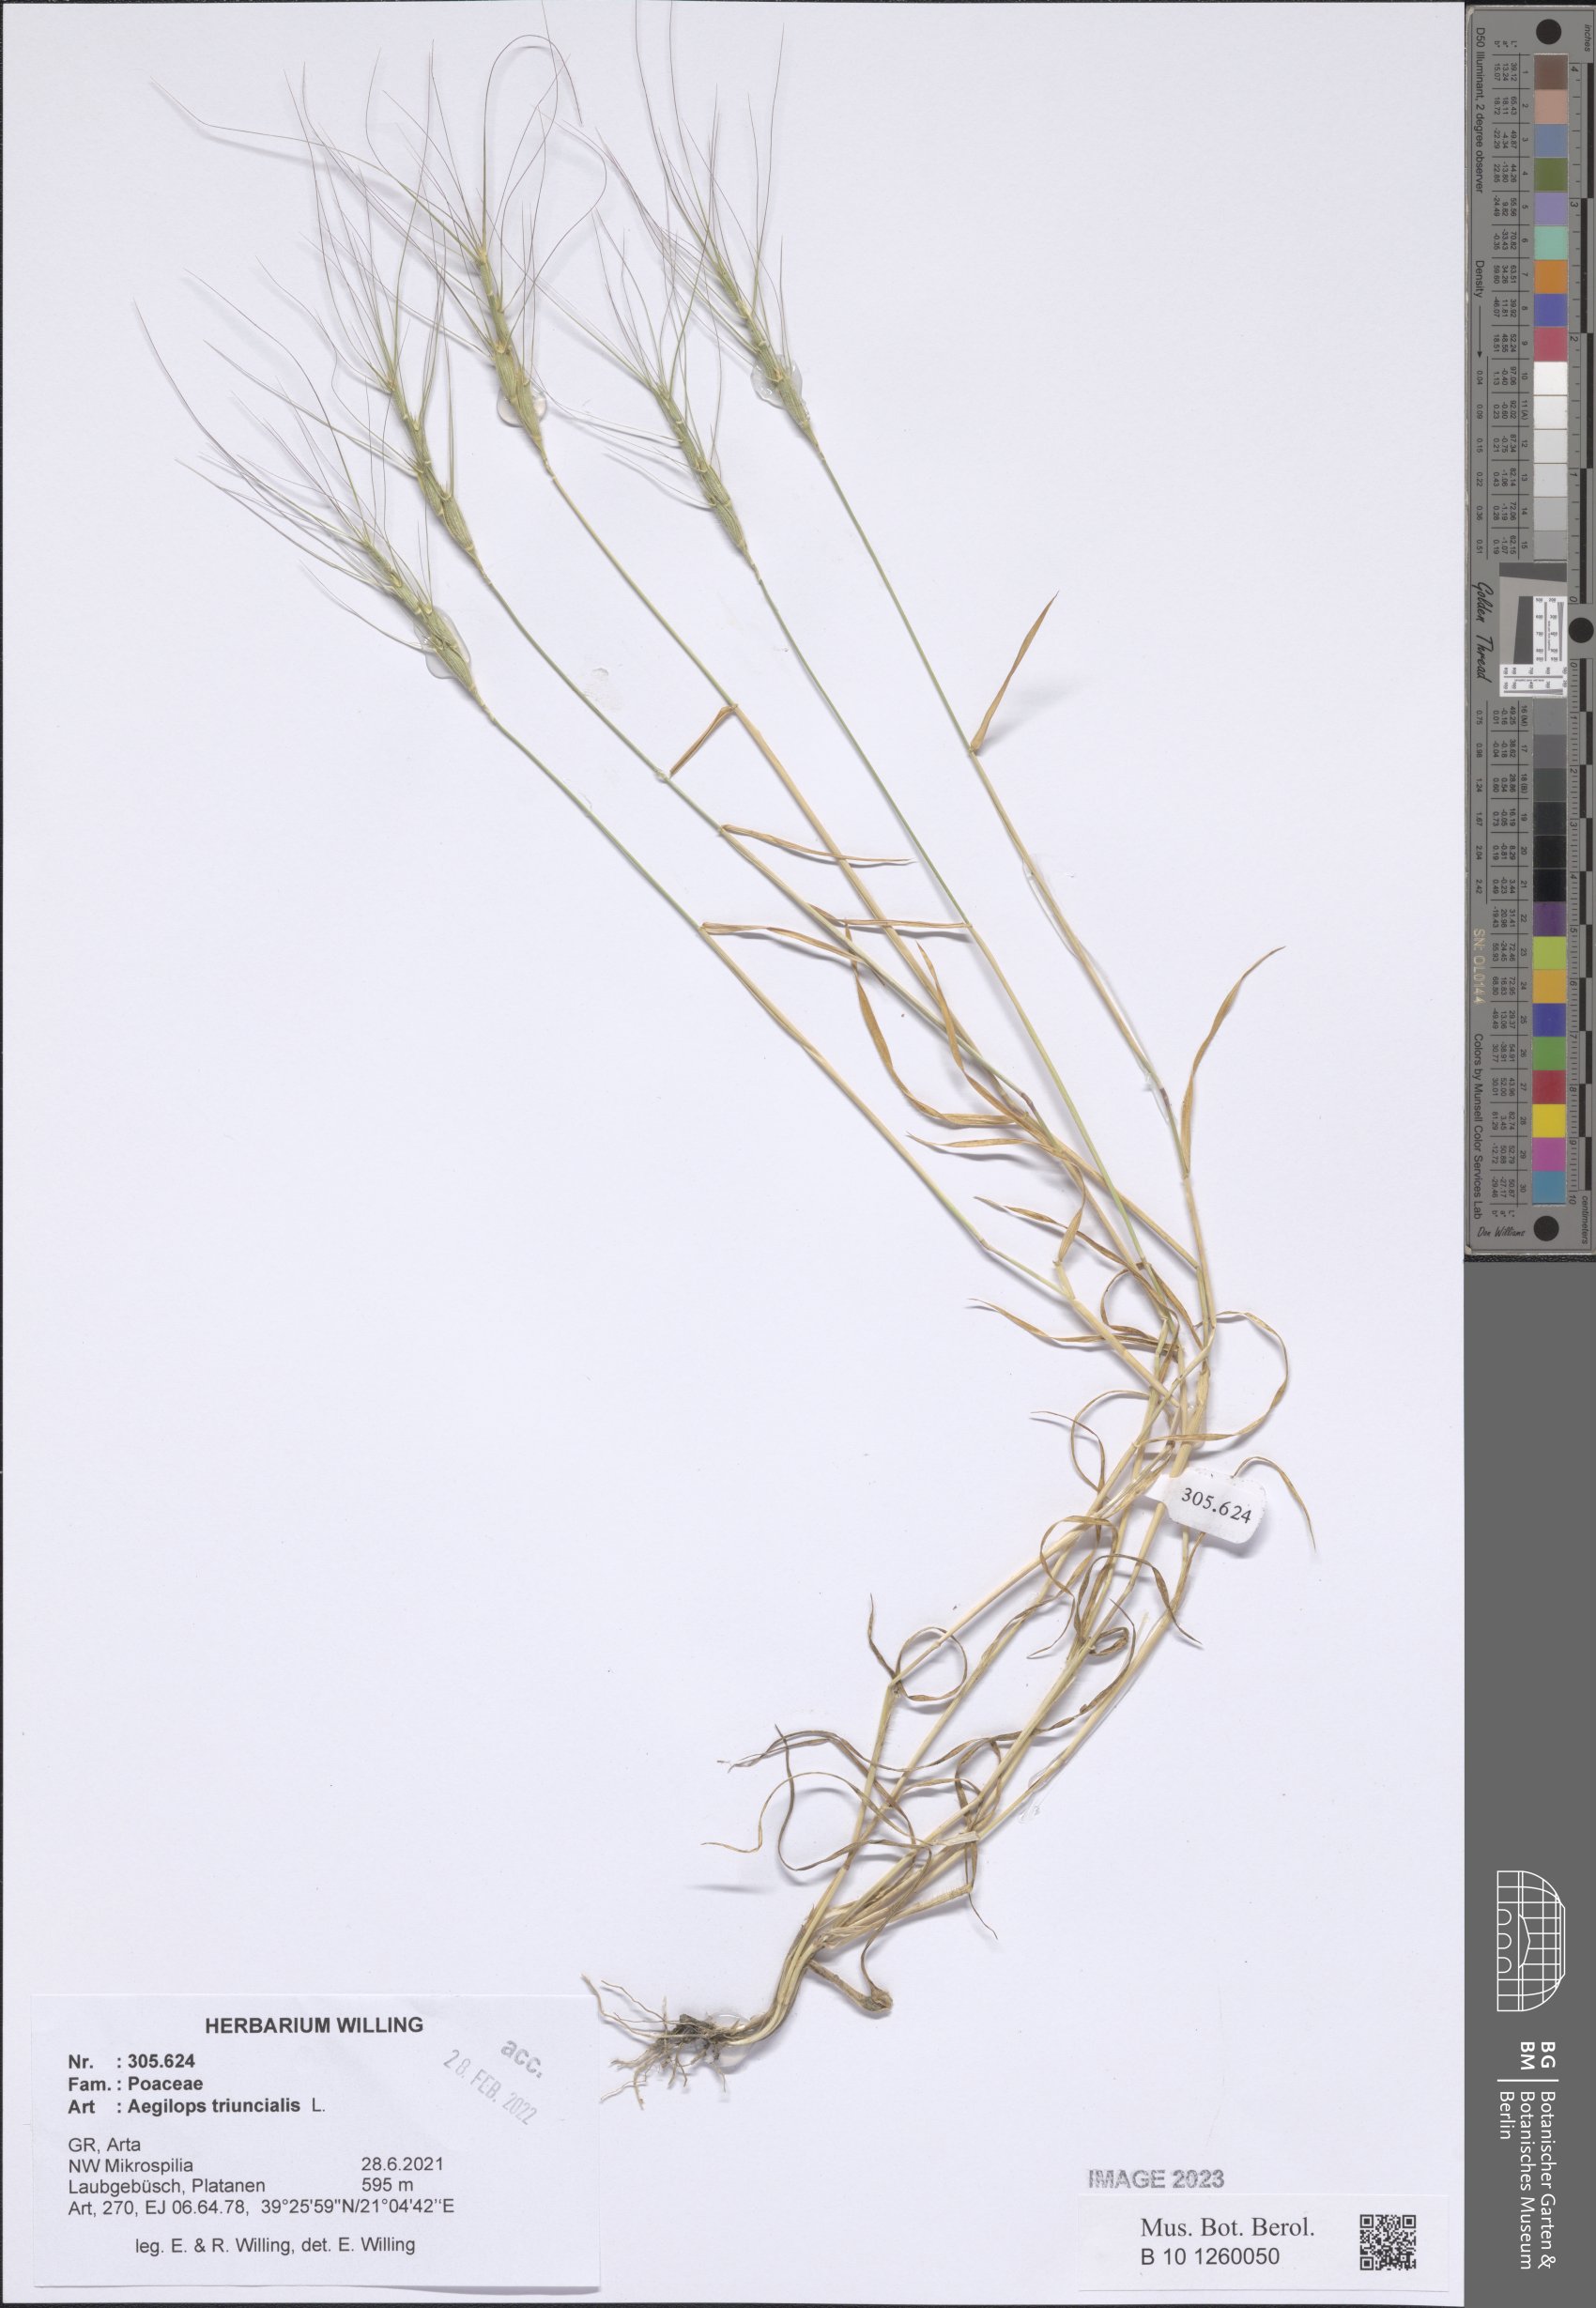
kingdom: Plantae
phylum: Tracheophyta
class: Liliopsida
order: Poales
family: Poaceae
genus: Aegilops
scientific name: Aegilops triuncialis
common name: Barb goat grass
